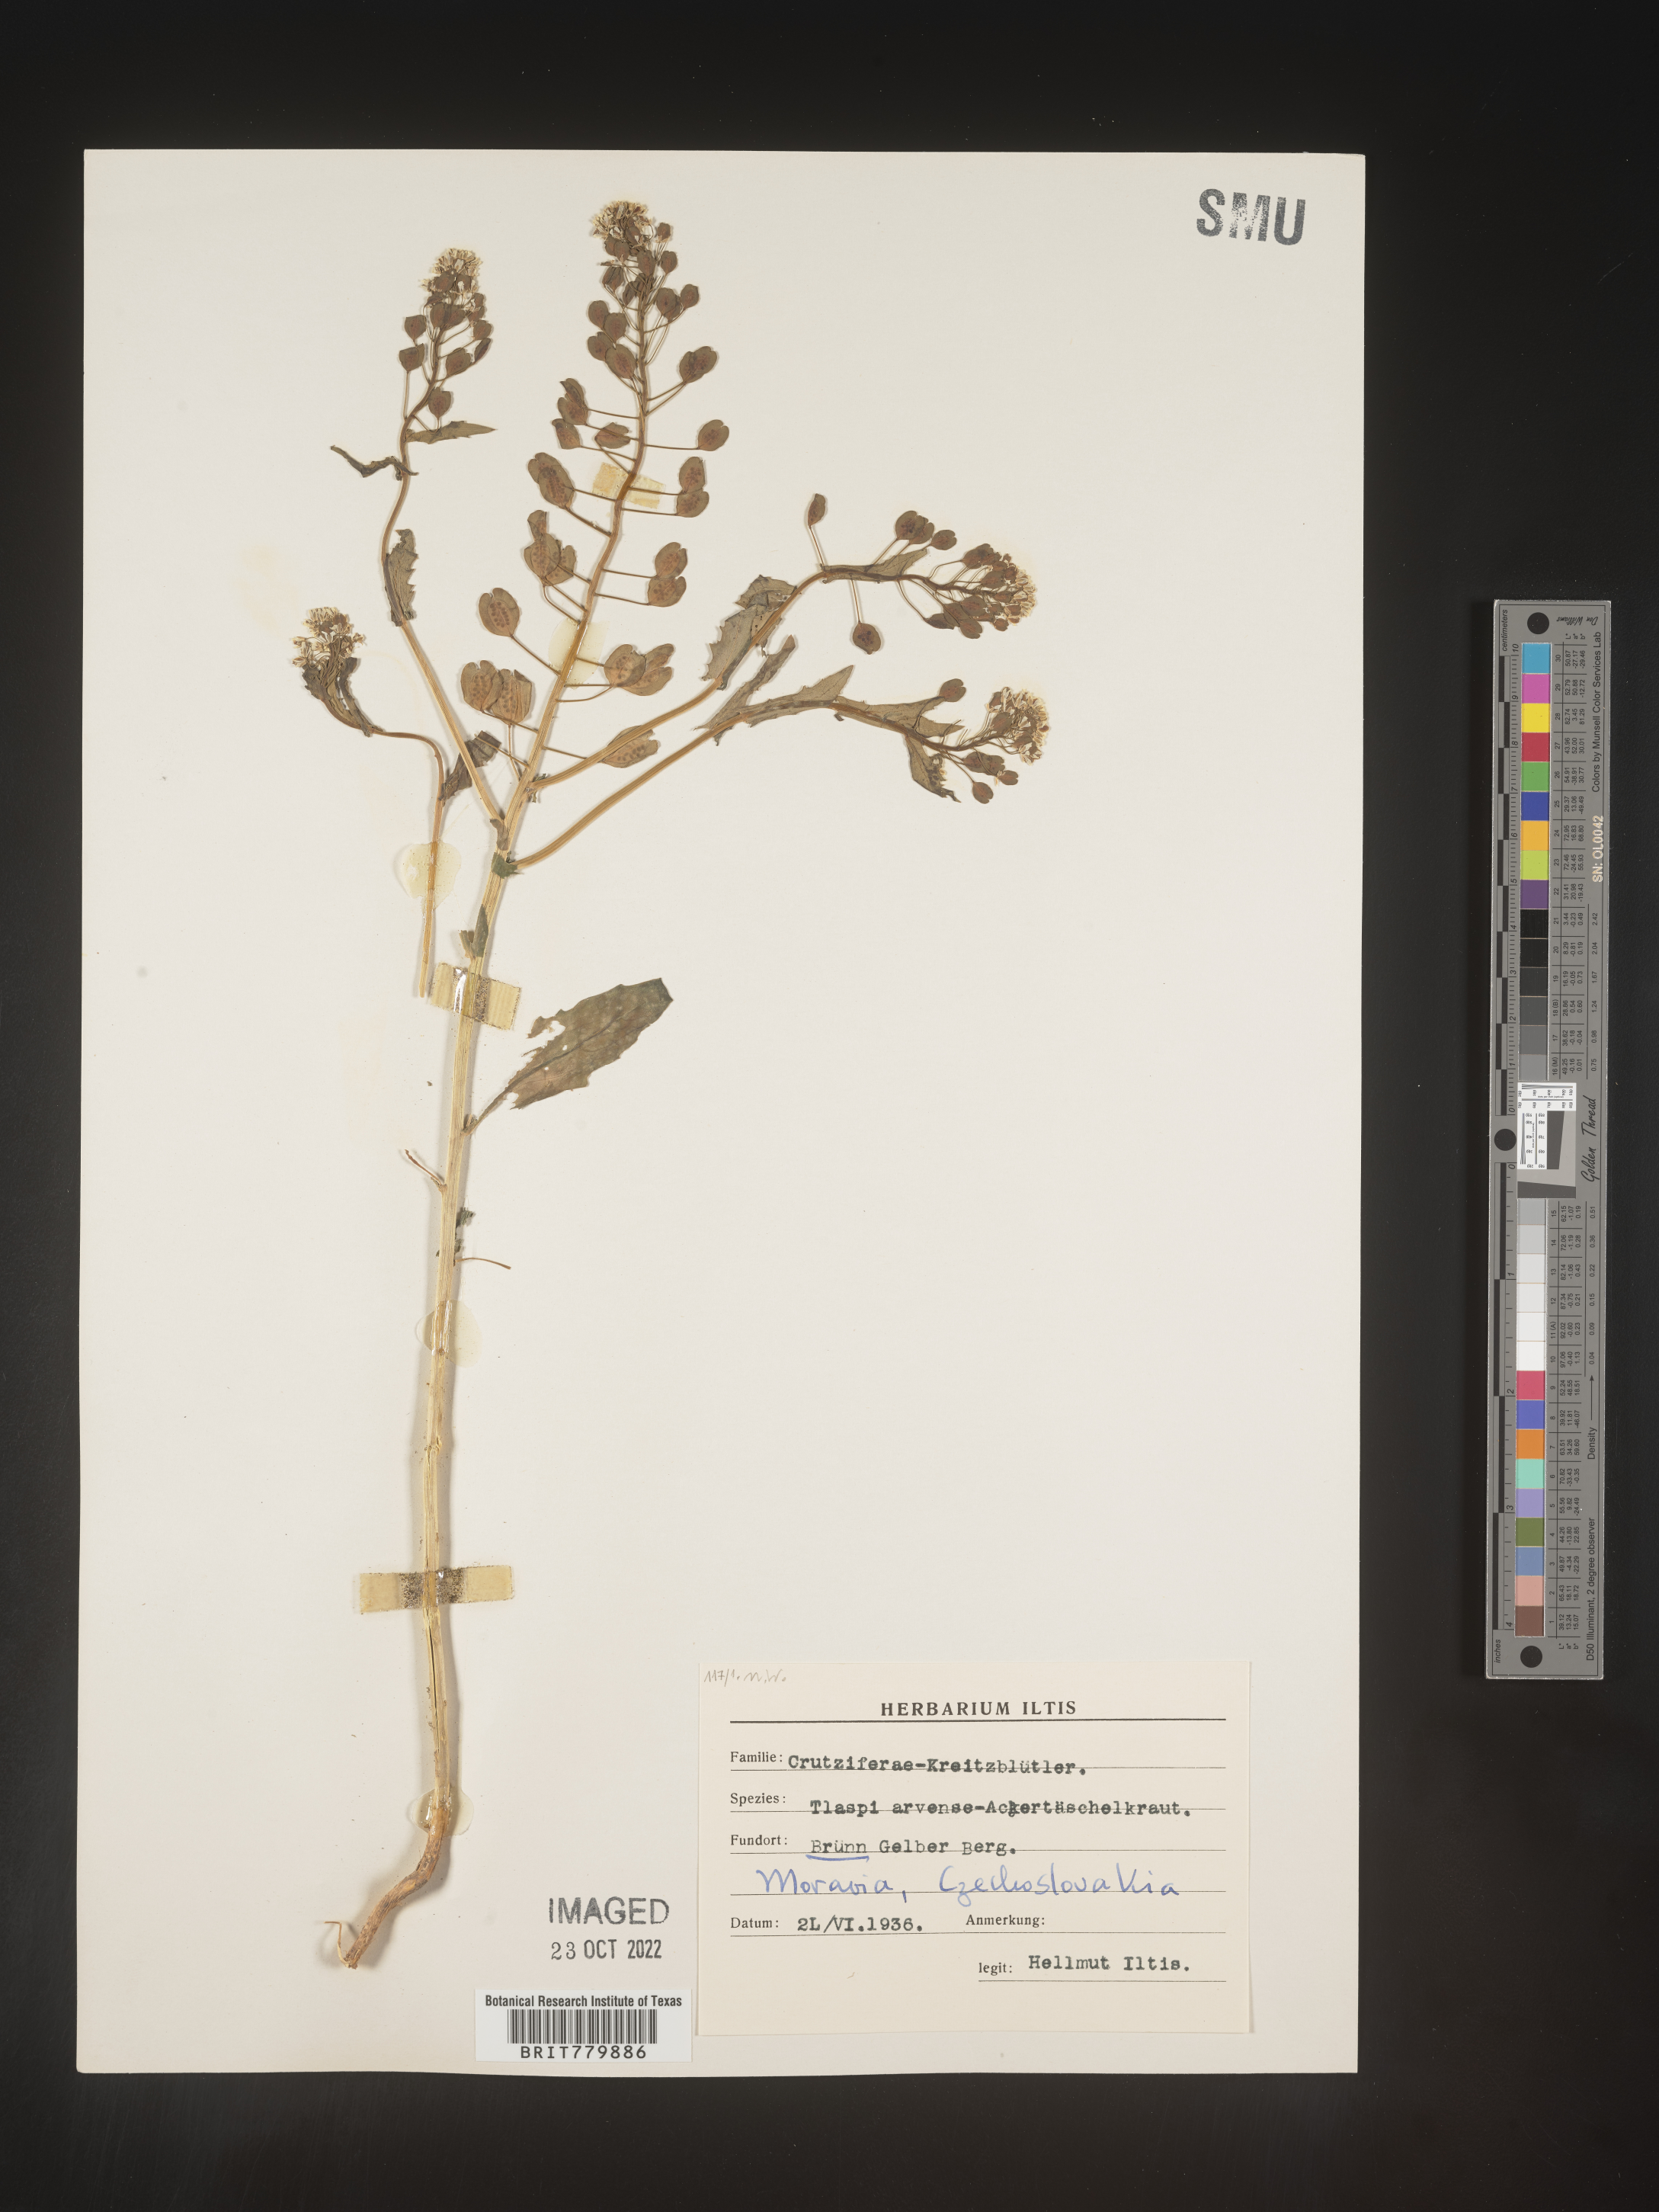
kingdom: Plantae
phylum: Tracheophyta
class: Magnoliopsida
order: Brassicales
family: Brassicaceae
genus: Thlaspi
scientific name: Thlaspi
